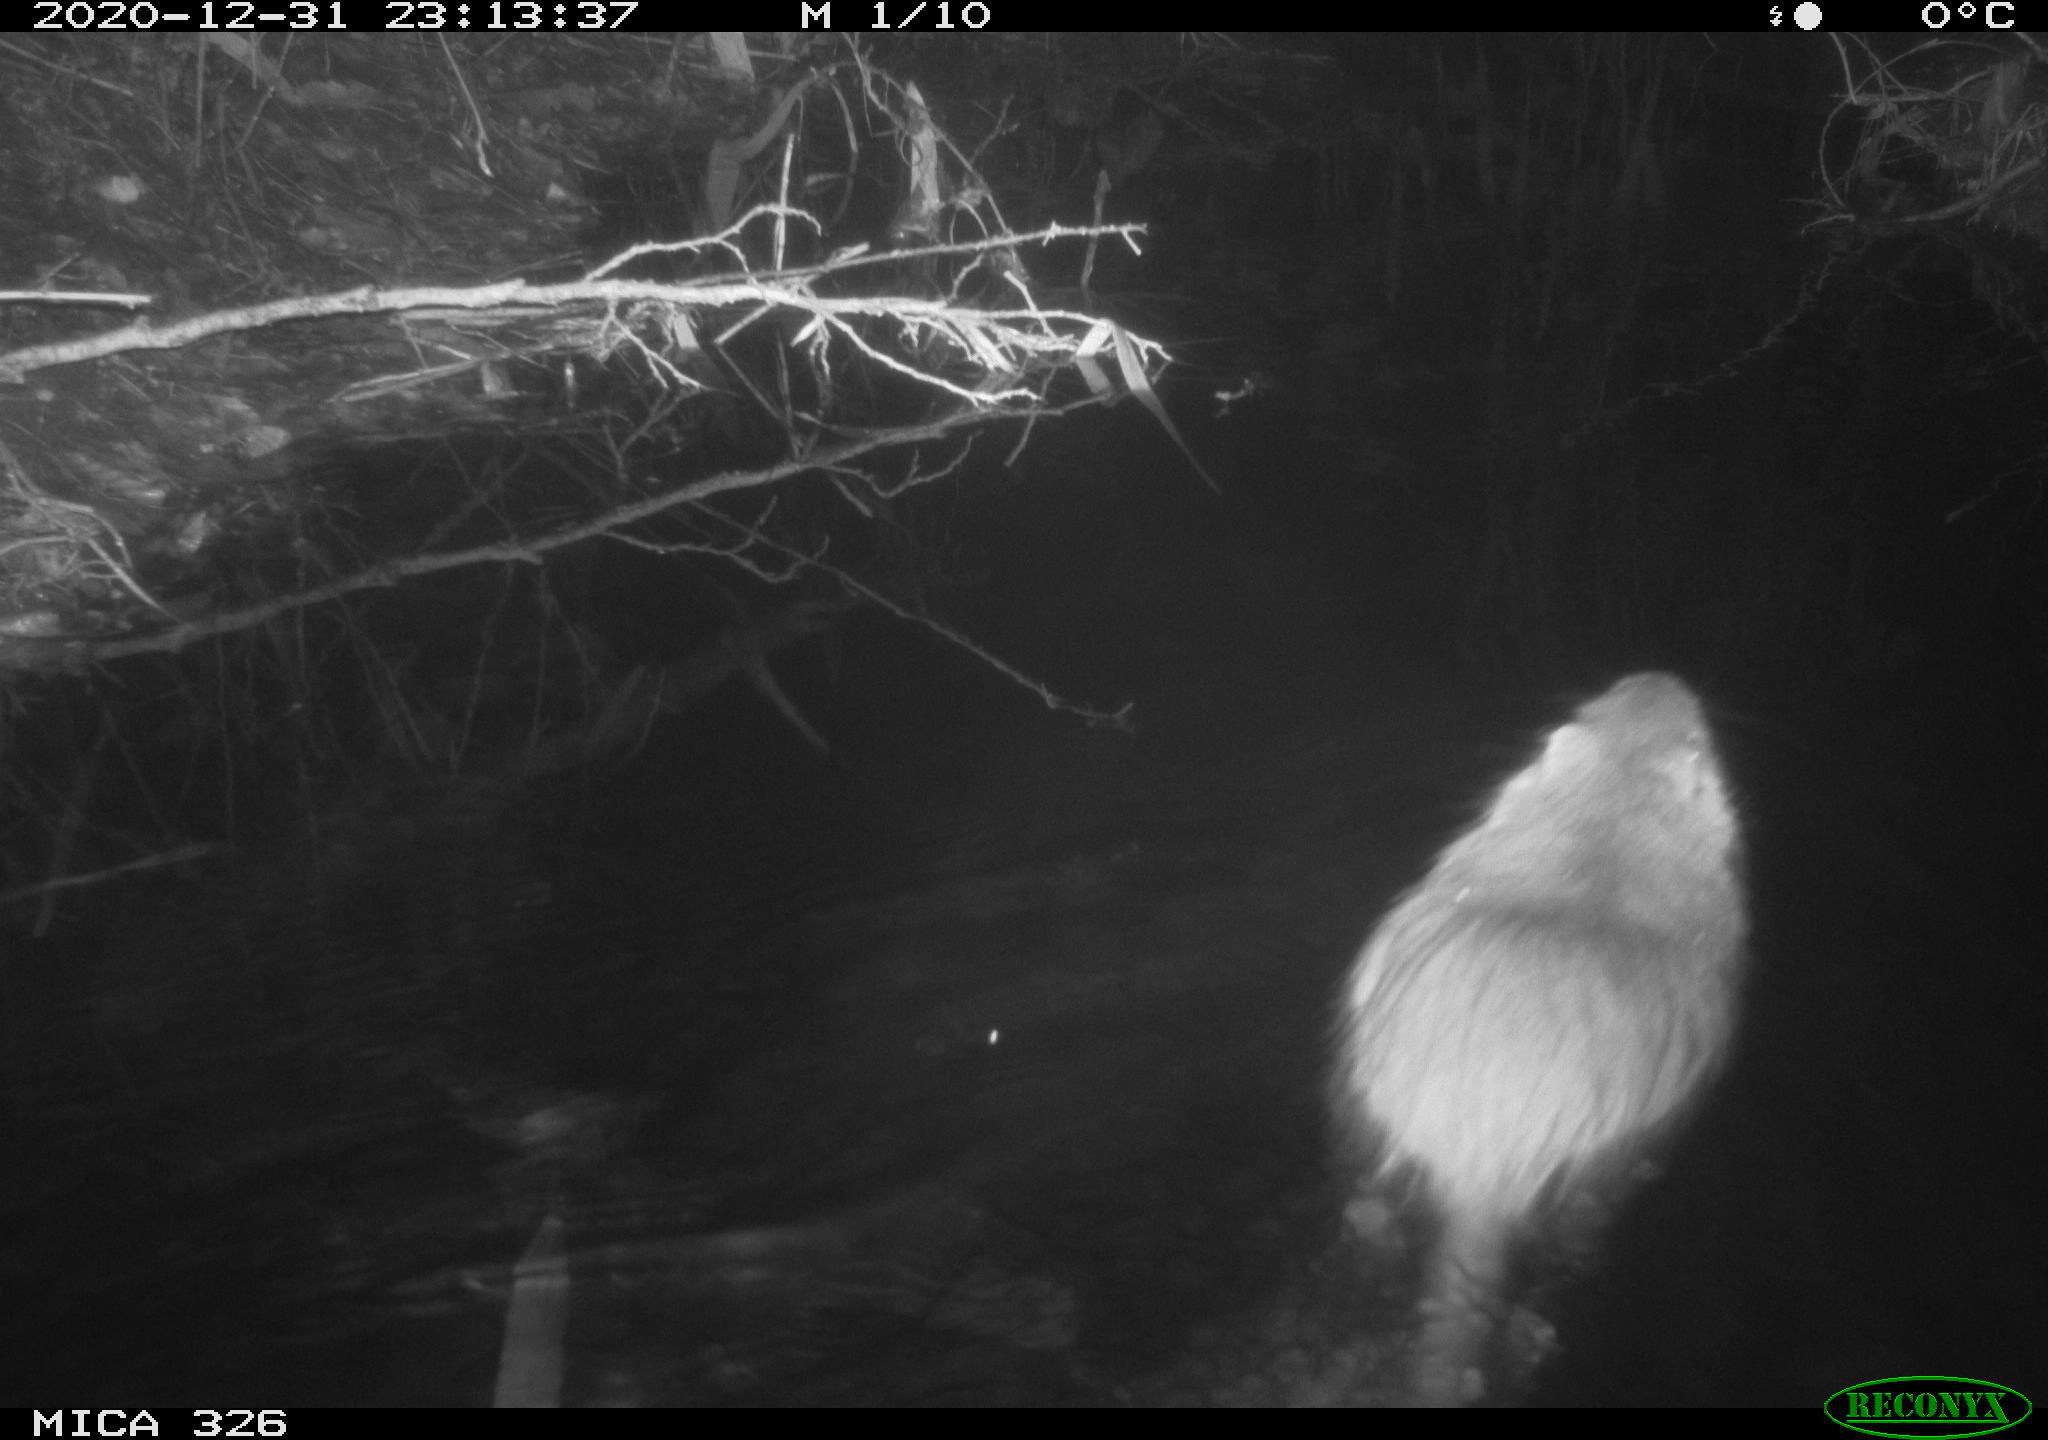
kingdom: Animalia
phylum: Chordata
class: Mammalia
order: Rodentia
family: Myocastoridae
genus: Myocastor
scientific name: Myocastor coypus
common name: Coypu
